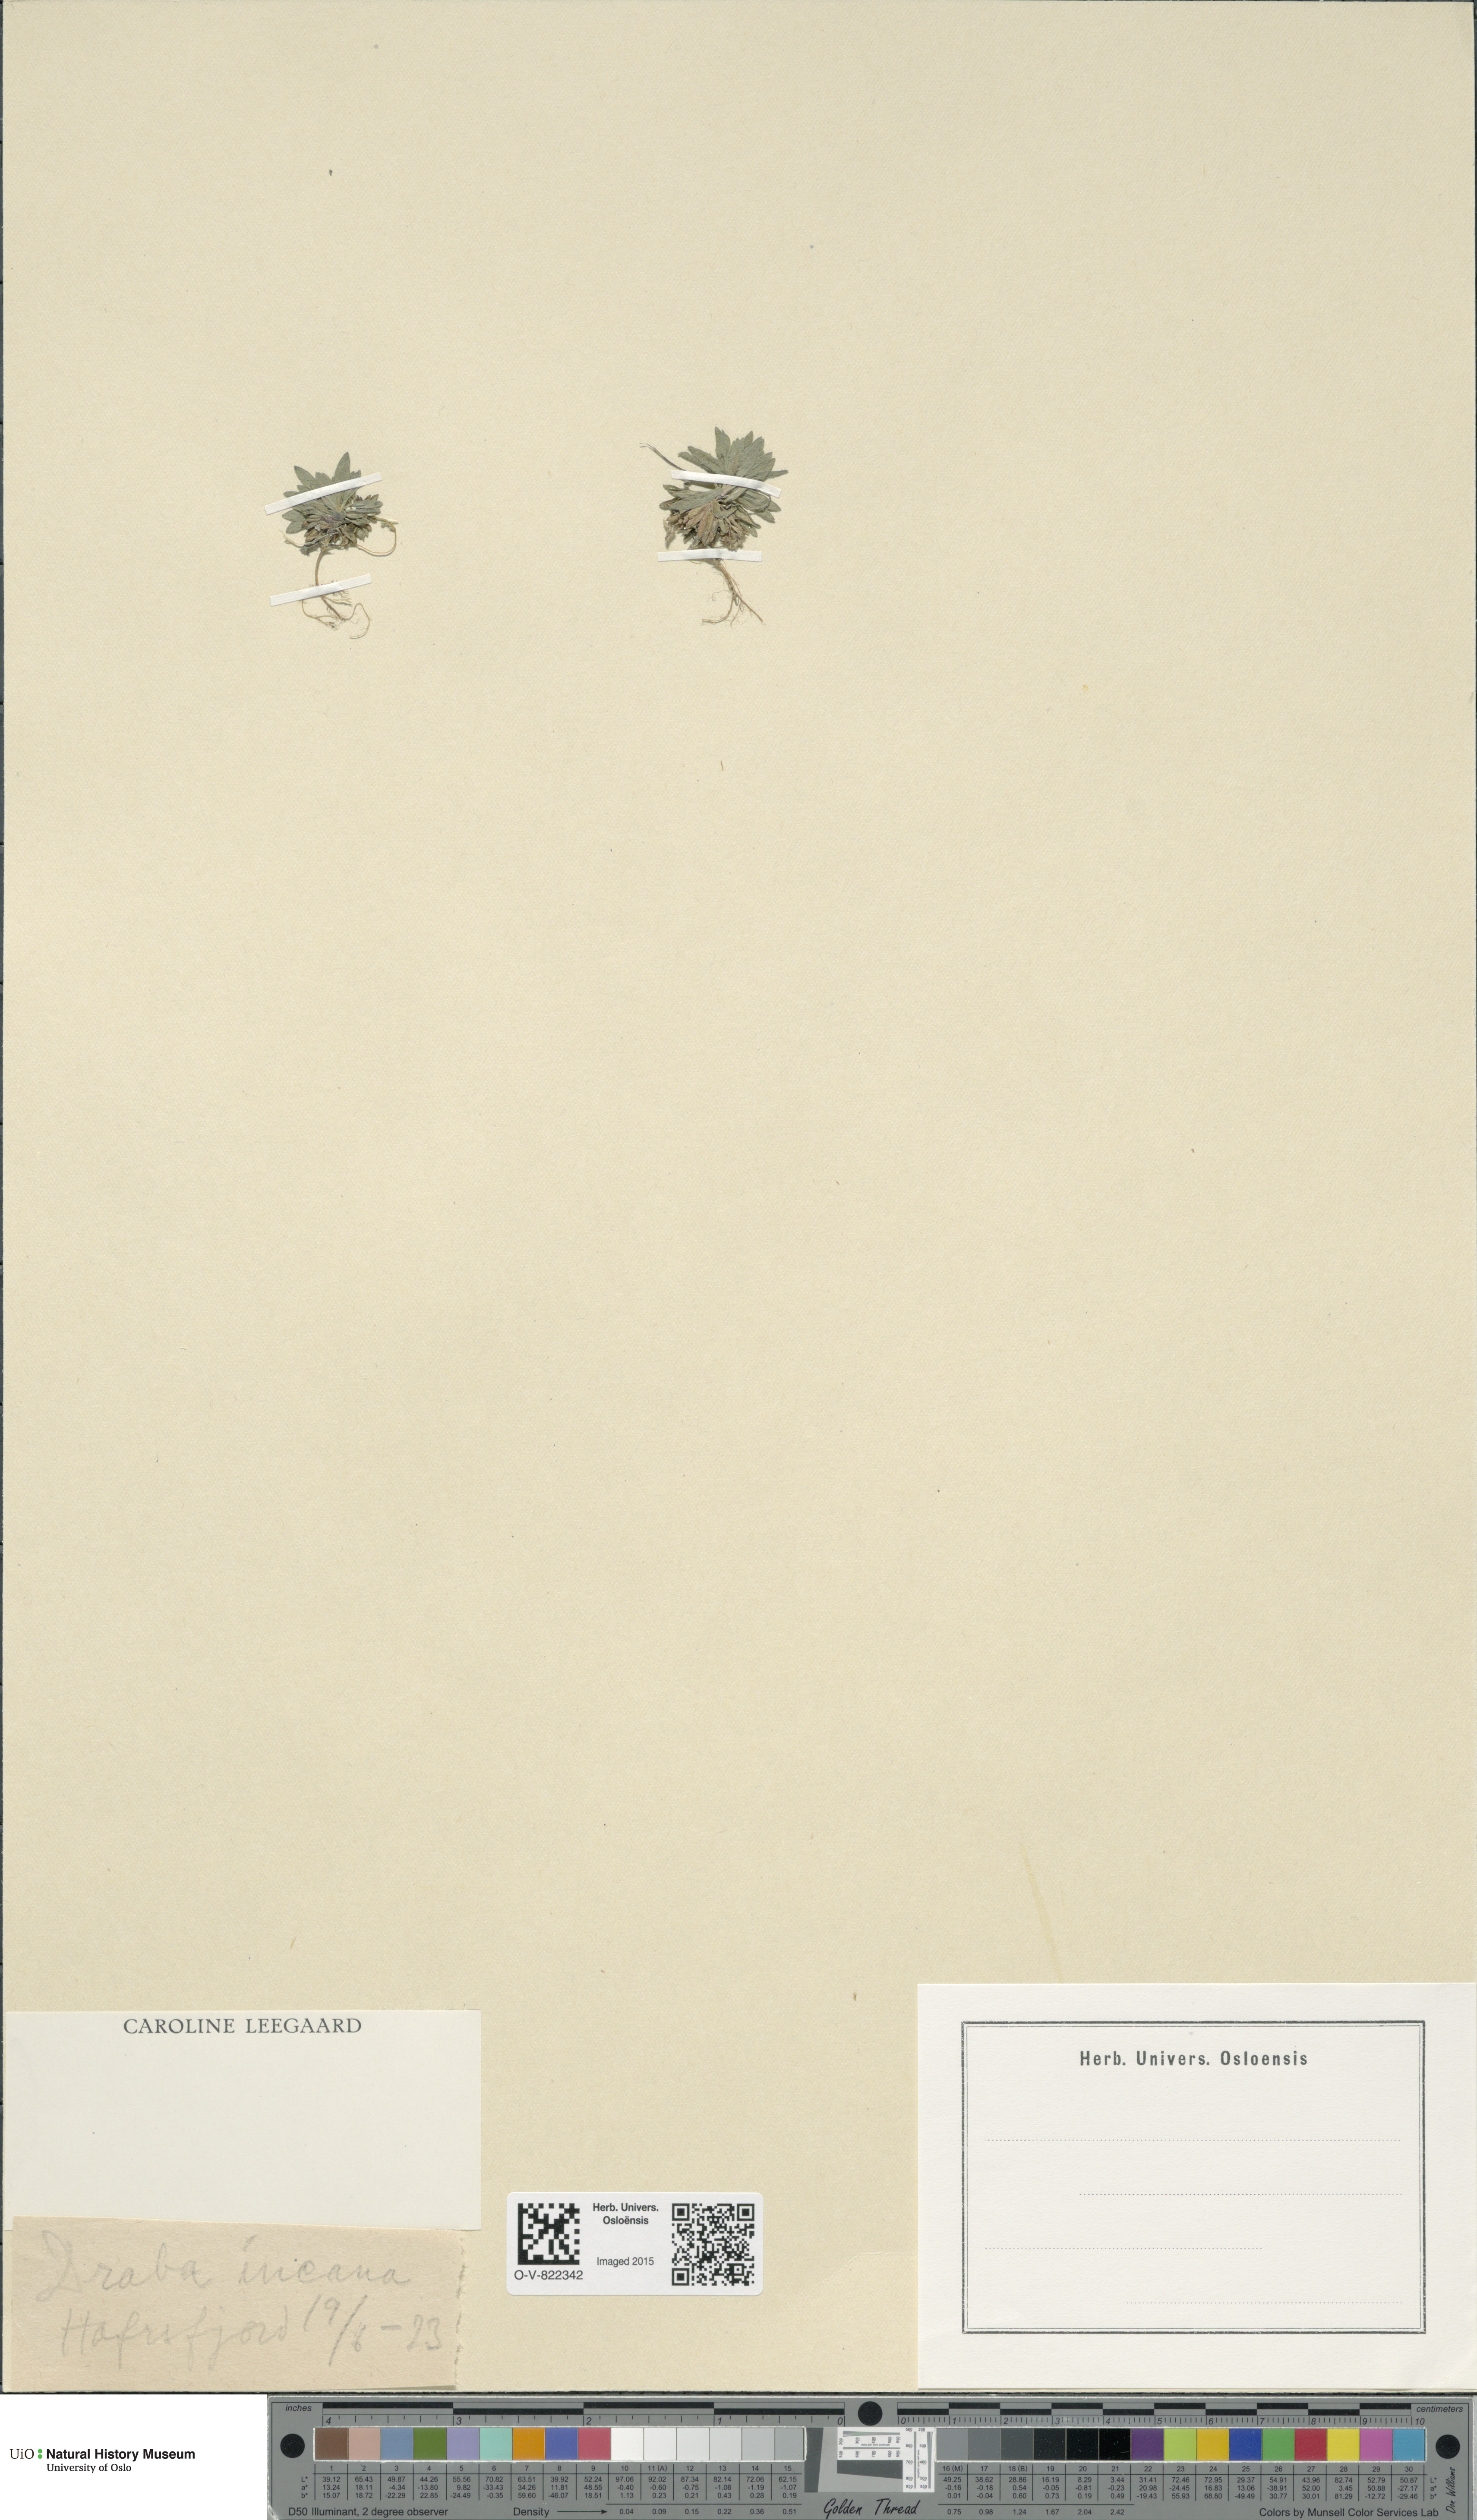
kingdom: Plantae
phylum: Tracheophyta
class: Magnoliopsida
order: Brassicales
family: Brassicaceae
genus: Draba
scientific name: Draba incana
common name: Hoary whitlow-grass
